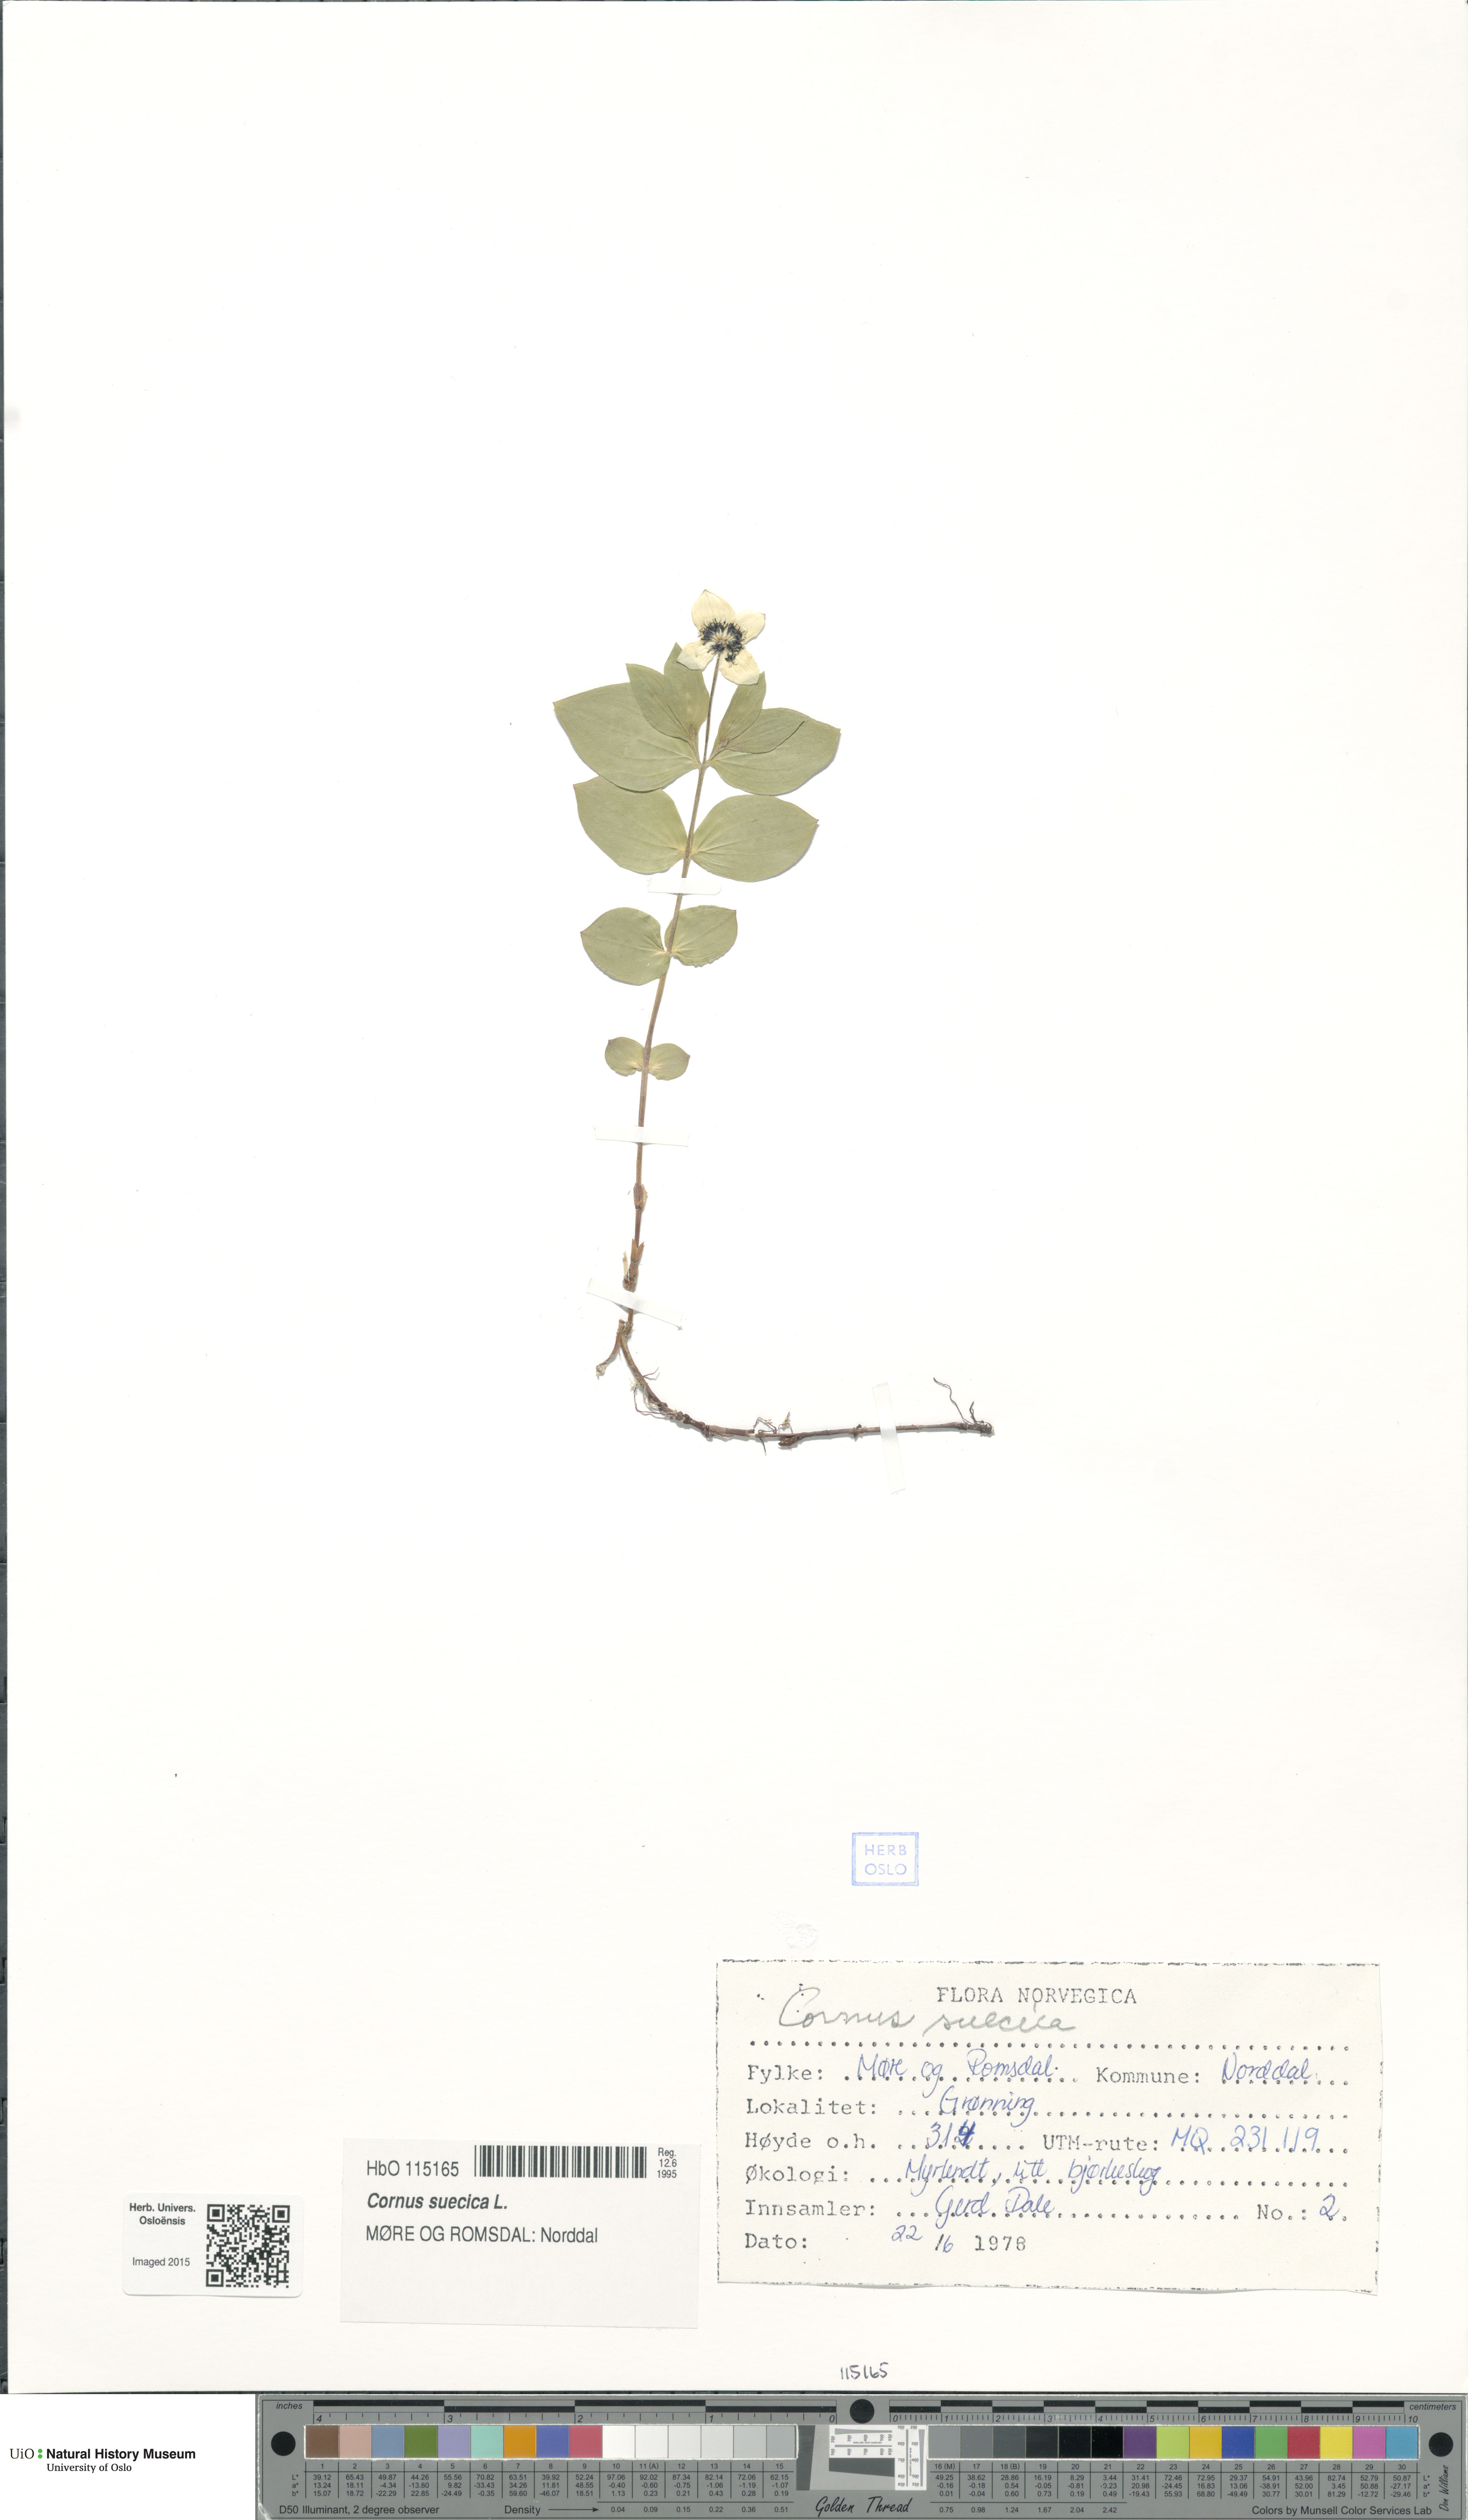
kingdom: Plantae
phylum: Tracheophyta
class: Magnoliopsida
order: Cornales
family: Cornaceae
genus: Cornus
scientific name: Cornus suecica
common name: Dwarf cornel
